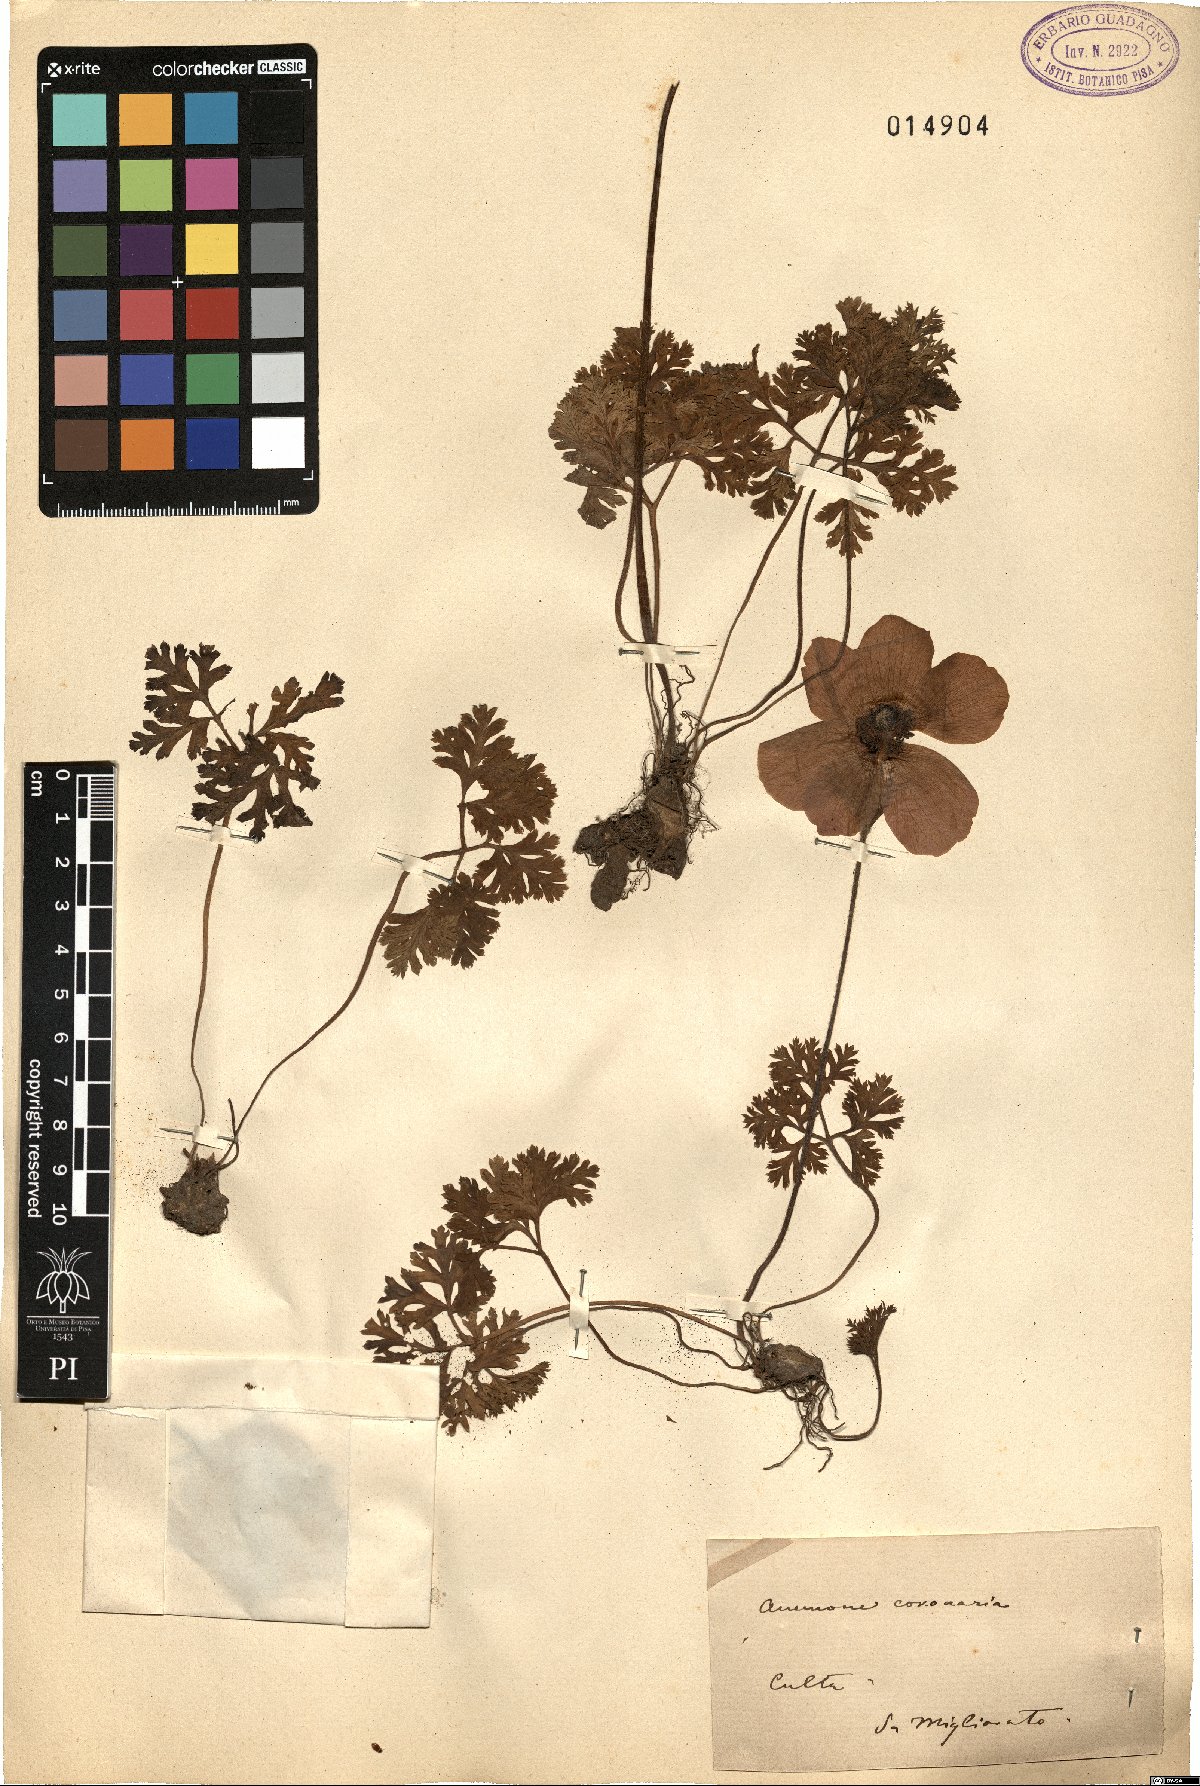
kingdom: Plantae
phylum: Tracheophyta
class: Magnoliopsida
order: Ranunculales
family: Ranunculaceae
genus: Anemone
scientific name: Anemone coronaria
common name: Poppy anemone
